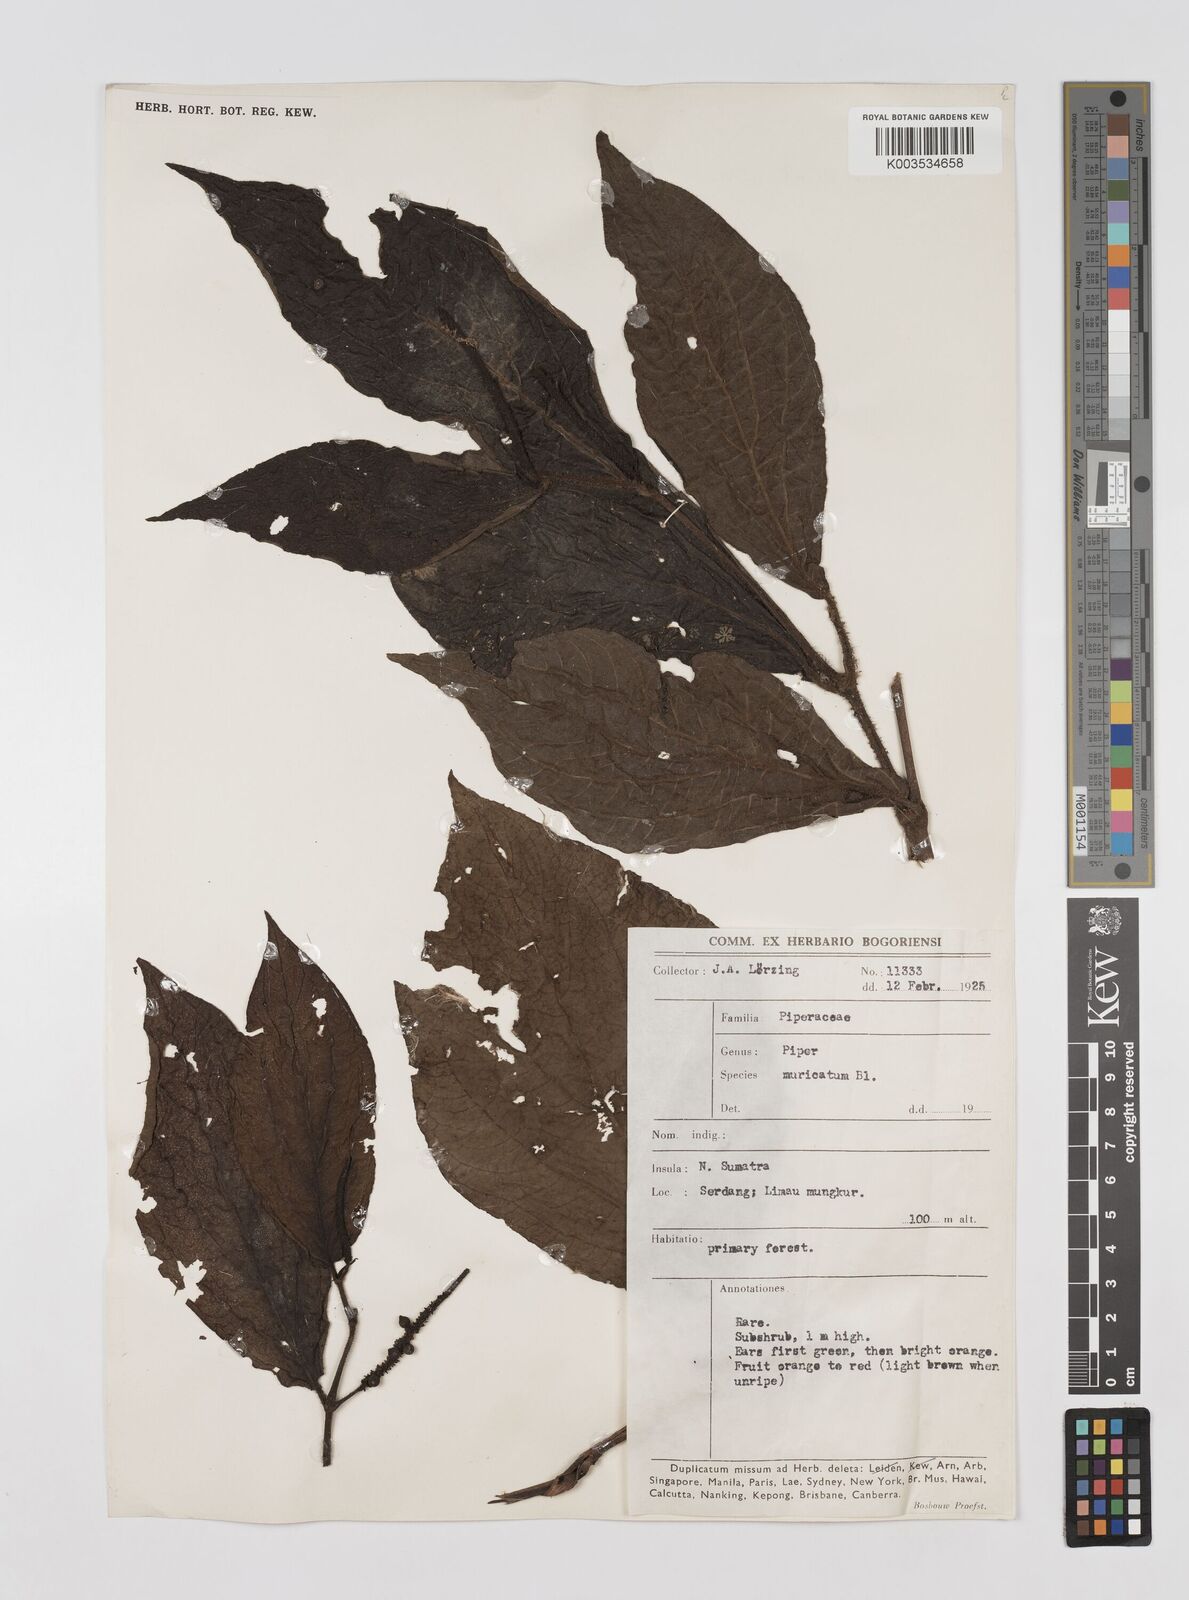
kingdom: Plantae
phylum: Tracheophyta
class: Magnoliopsida
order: Piperales
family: Piperaceae
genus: Piper
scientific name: Piper muricatum
